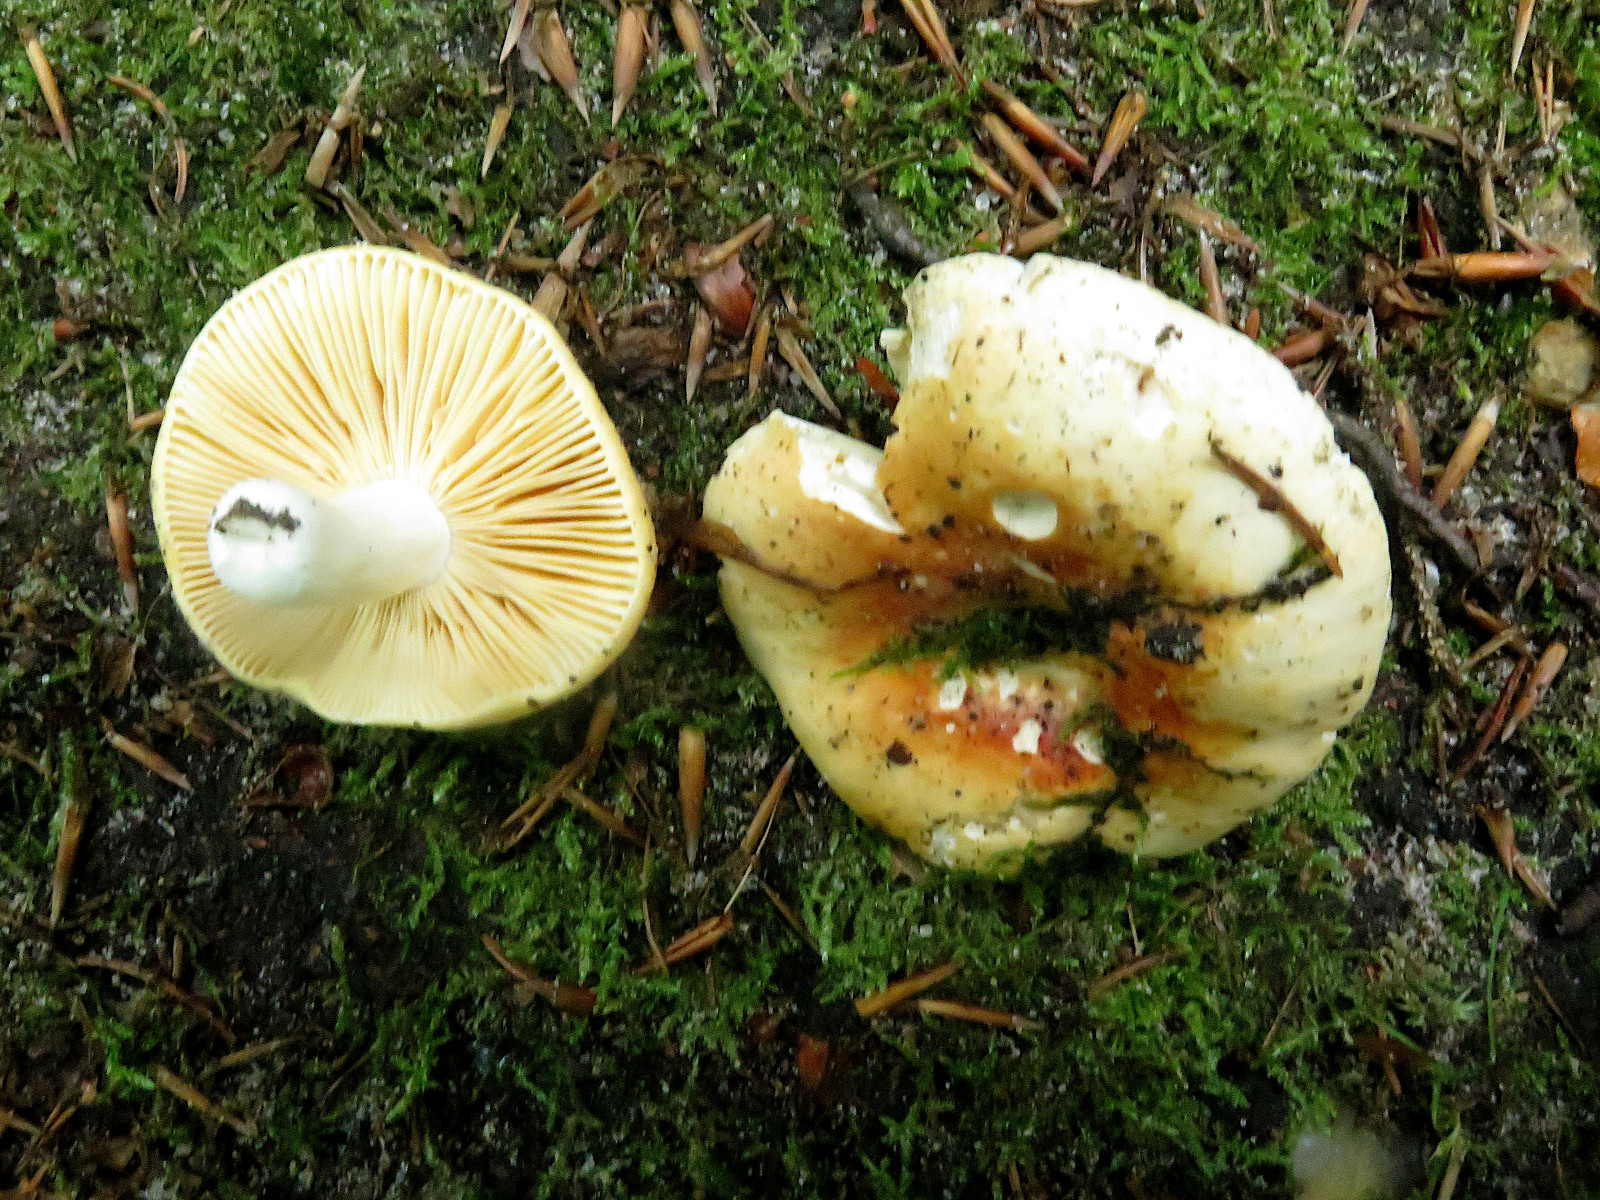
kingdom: Fungi
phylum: Basidiomycota
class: Agaricomycetes
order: Russulales
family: Russulaceae
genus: Russula
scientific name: Russula risigallina
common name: abrikos-skørhat
